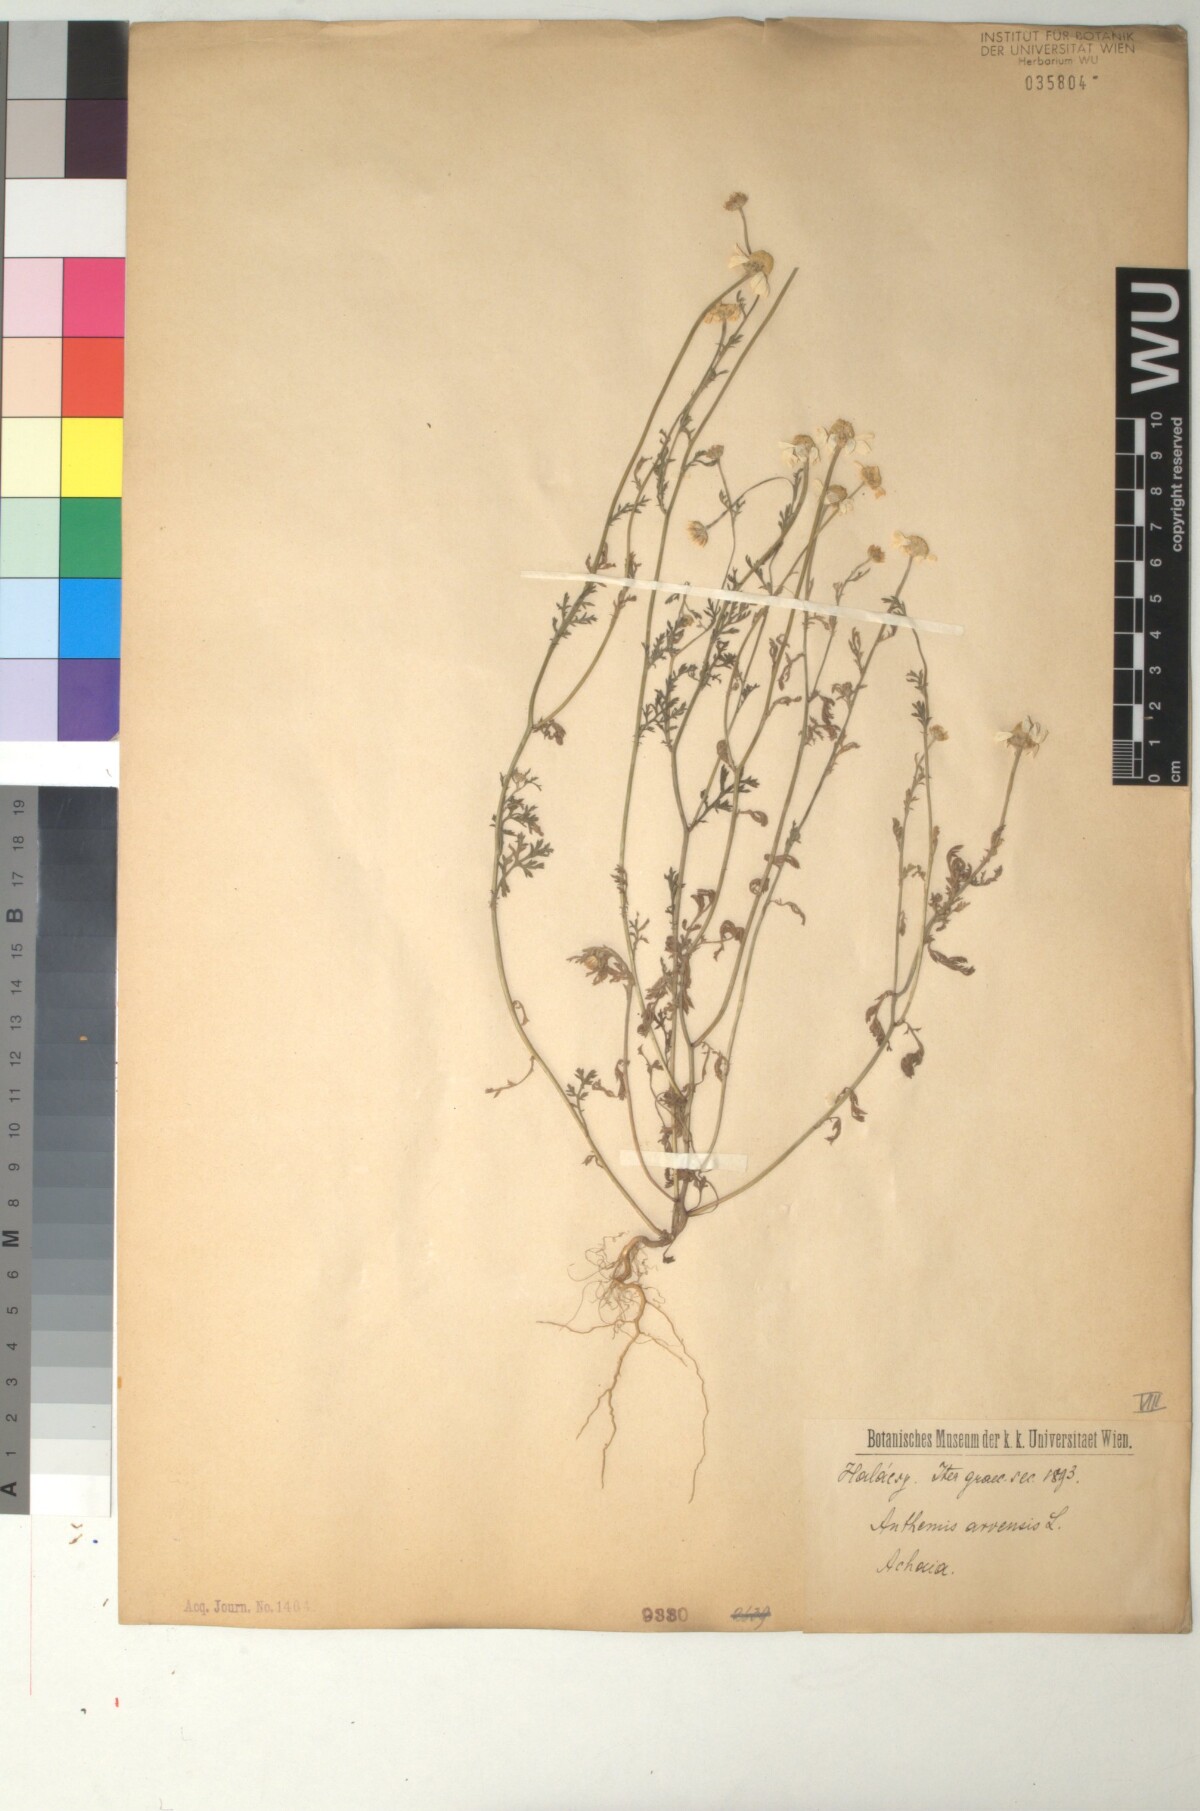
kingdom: Plantae
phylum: Tracheophyta
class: Magnoliopsida
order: Asterales
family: Asteraceae
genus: Anthemis
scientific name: Anthemis arvensis
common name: Corn chamomile
